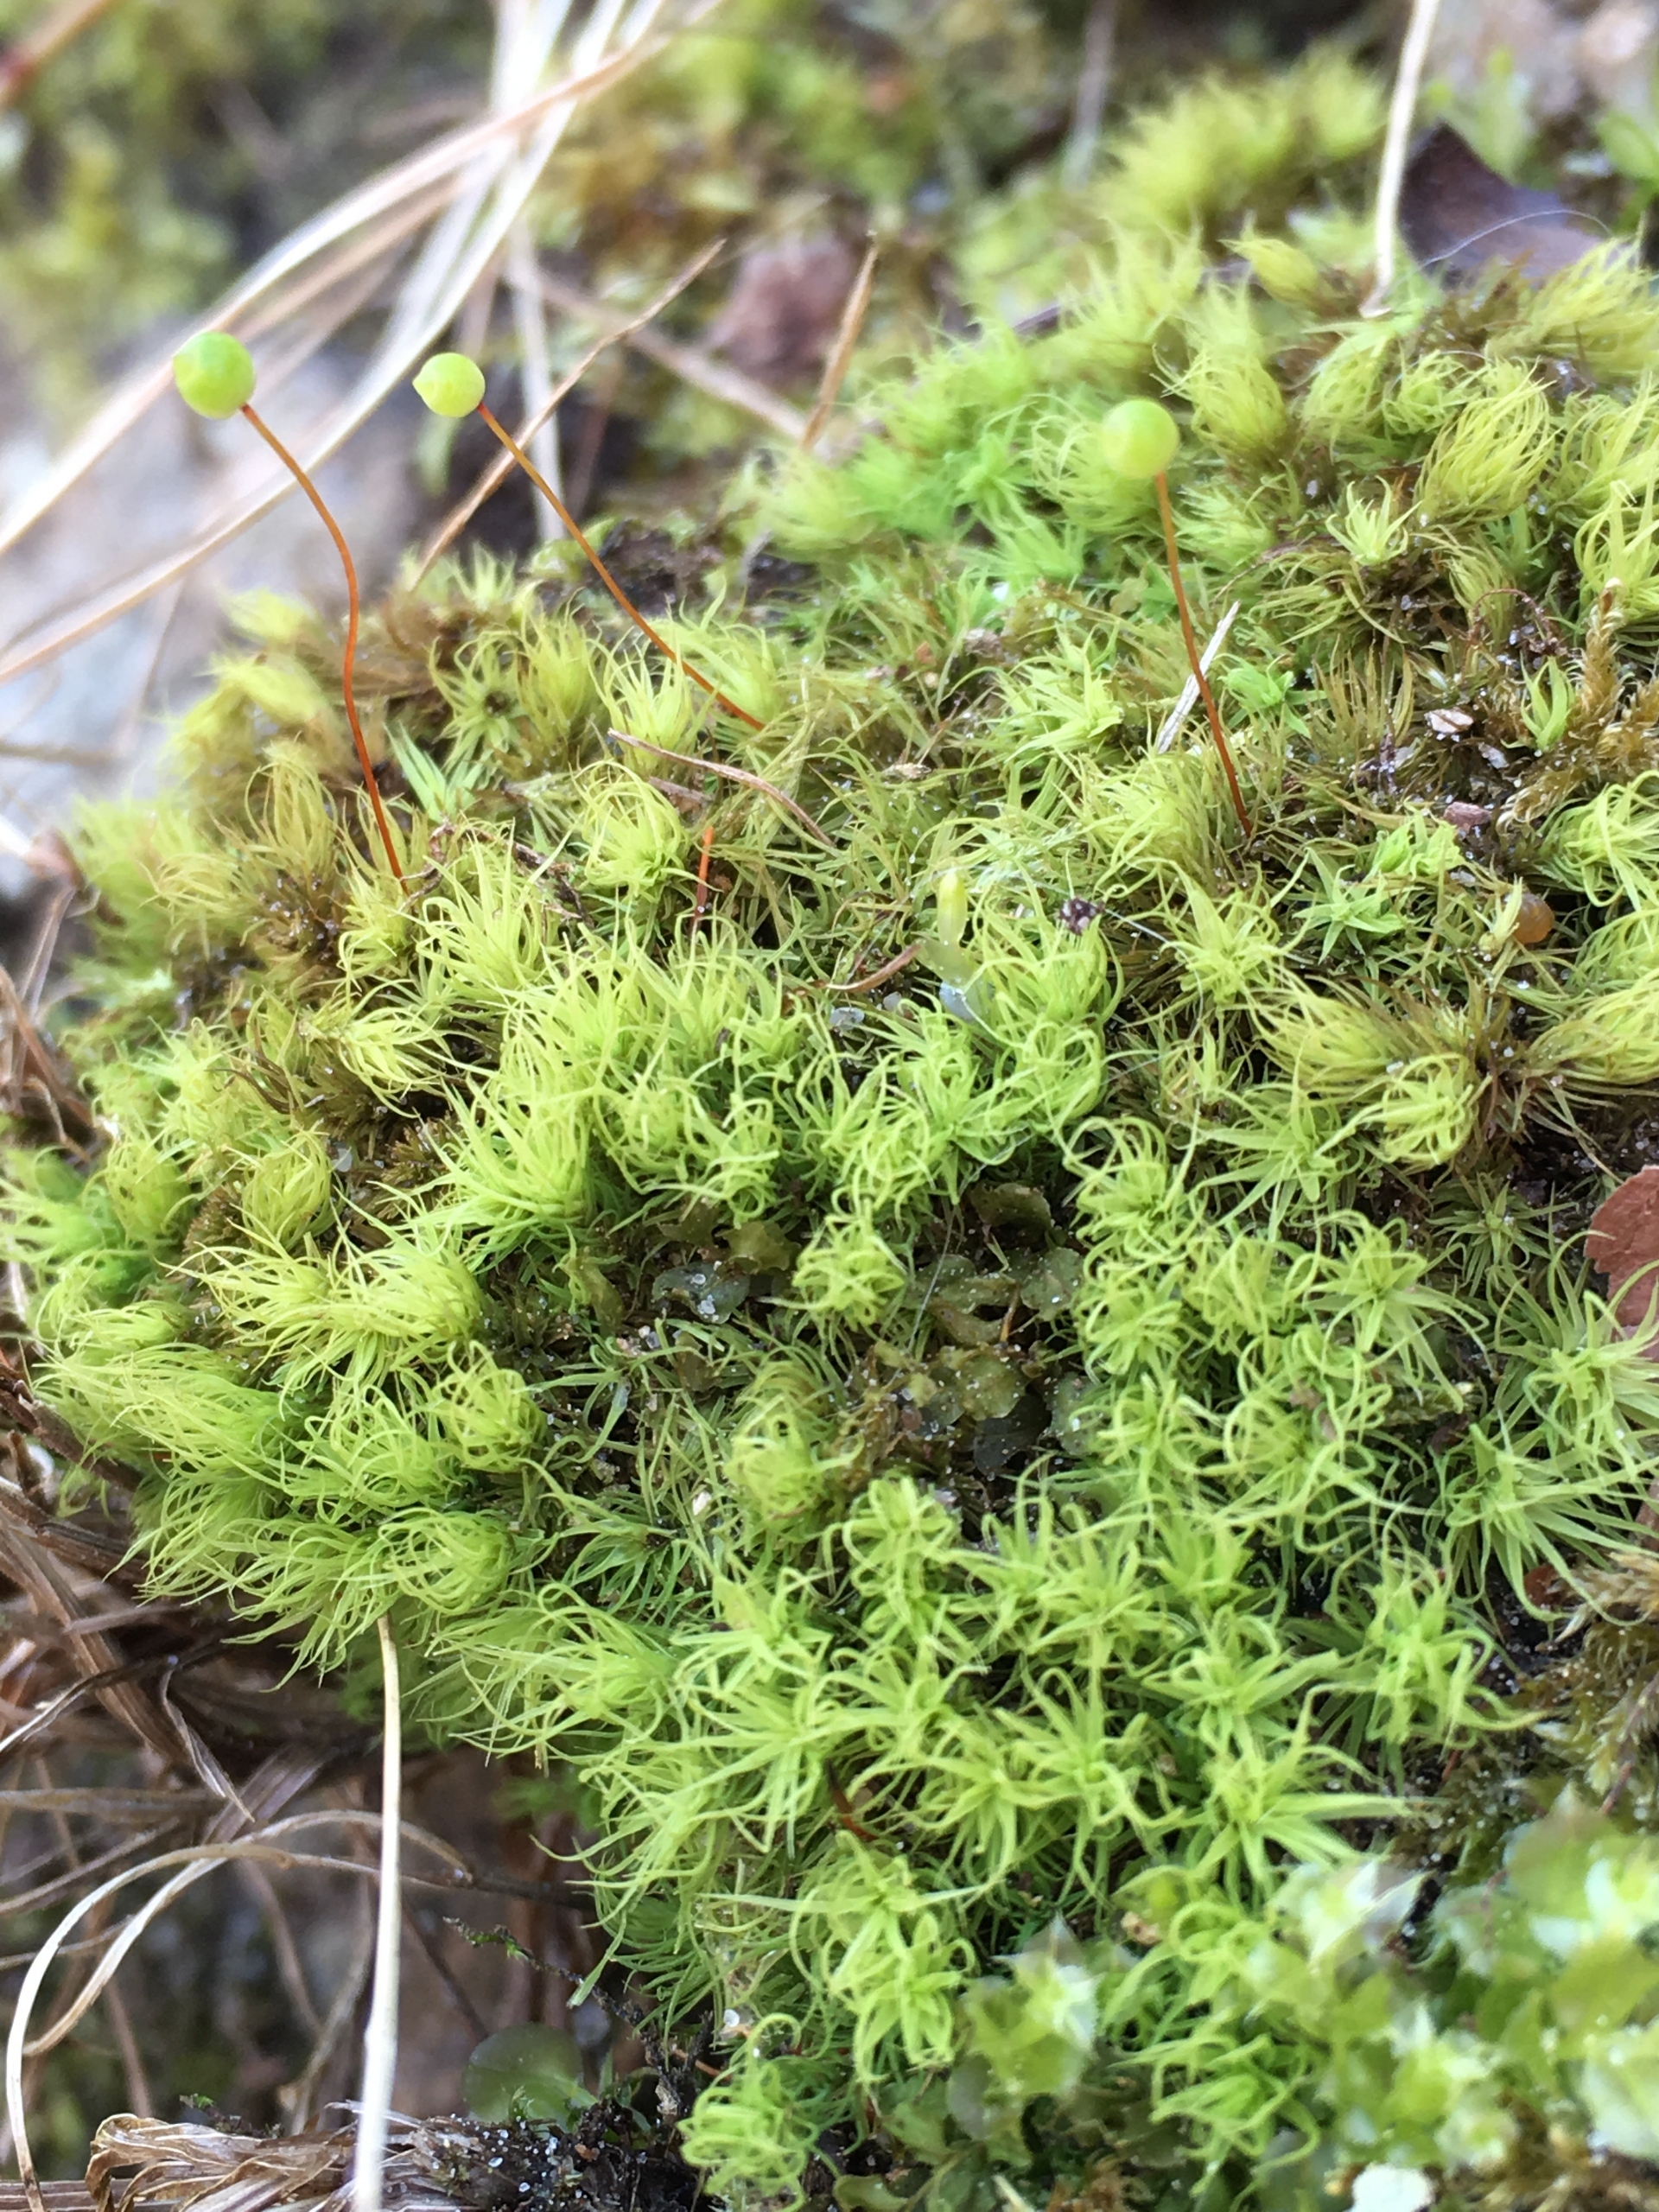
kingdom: Plantae
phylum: Bryophyta
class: Bryopsida
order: Bartramiales
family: Bartramiaceae
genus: Bartramia
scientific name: Bartramia ithyphylla
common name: Blågrøn kuglekapsel
